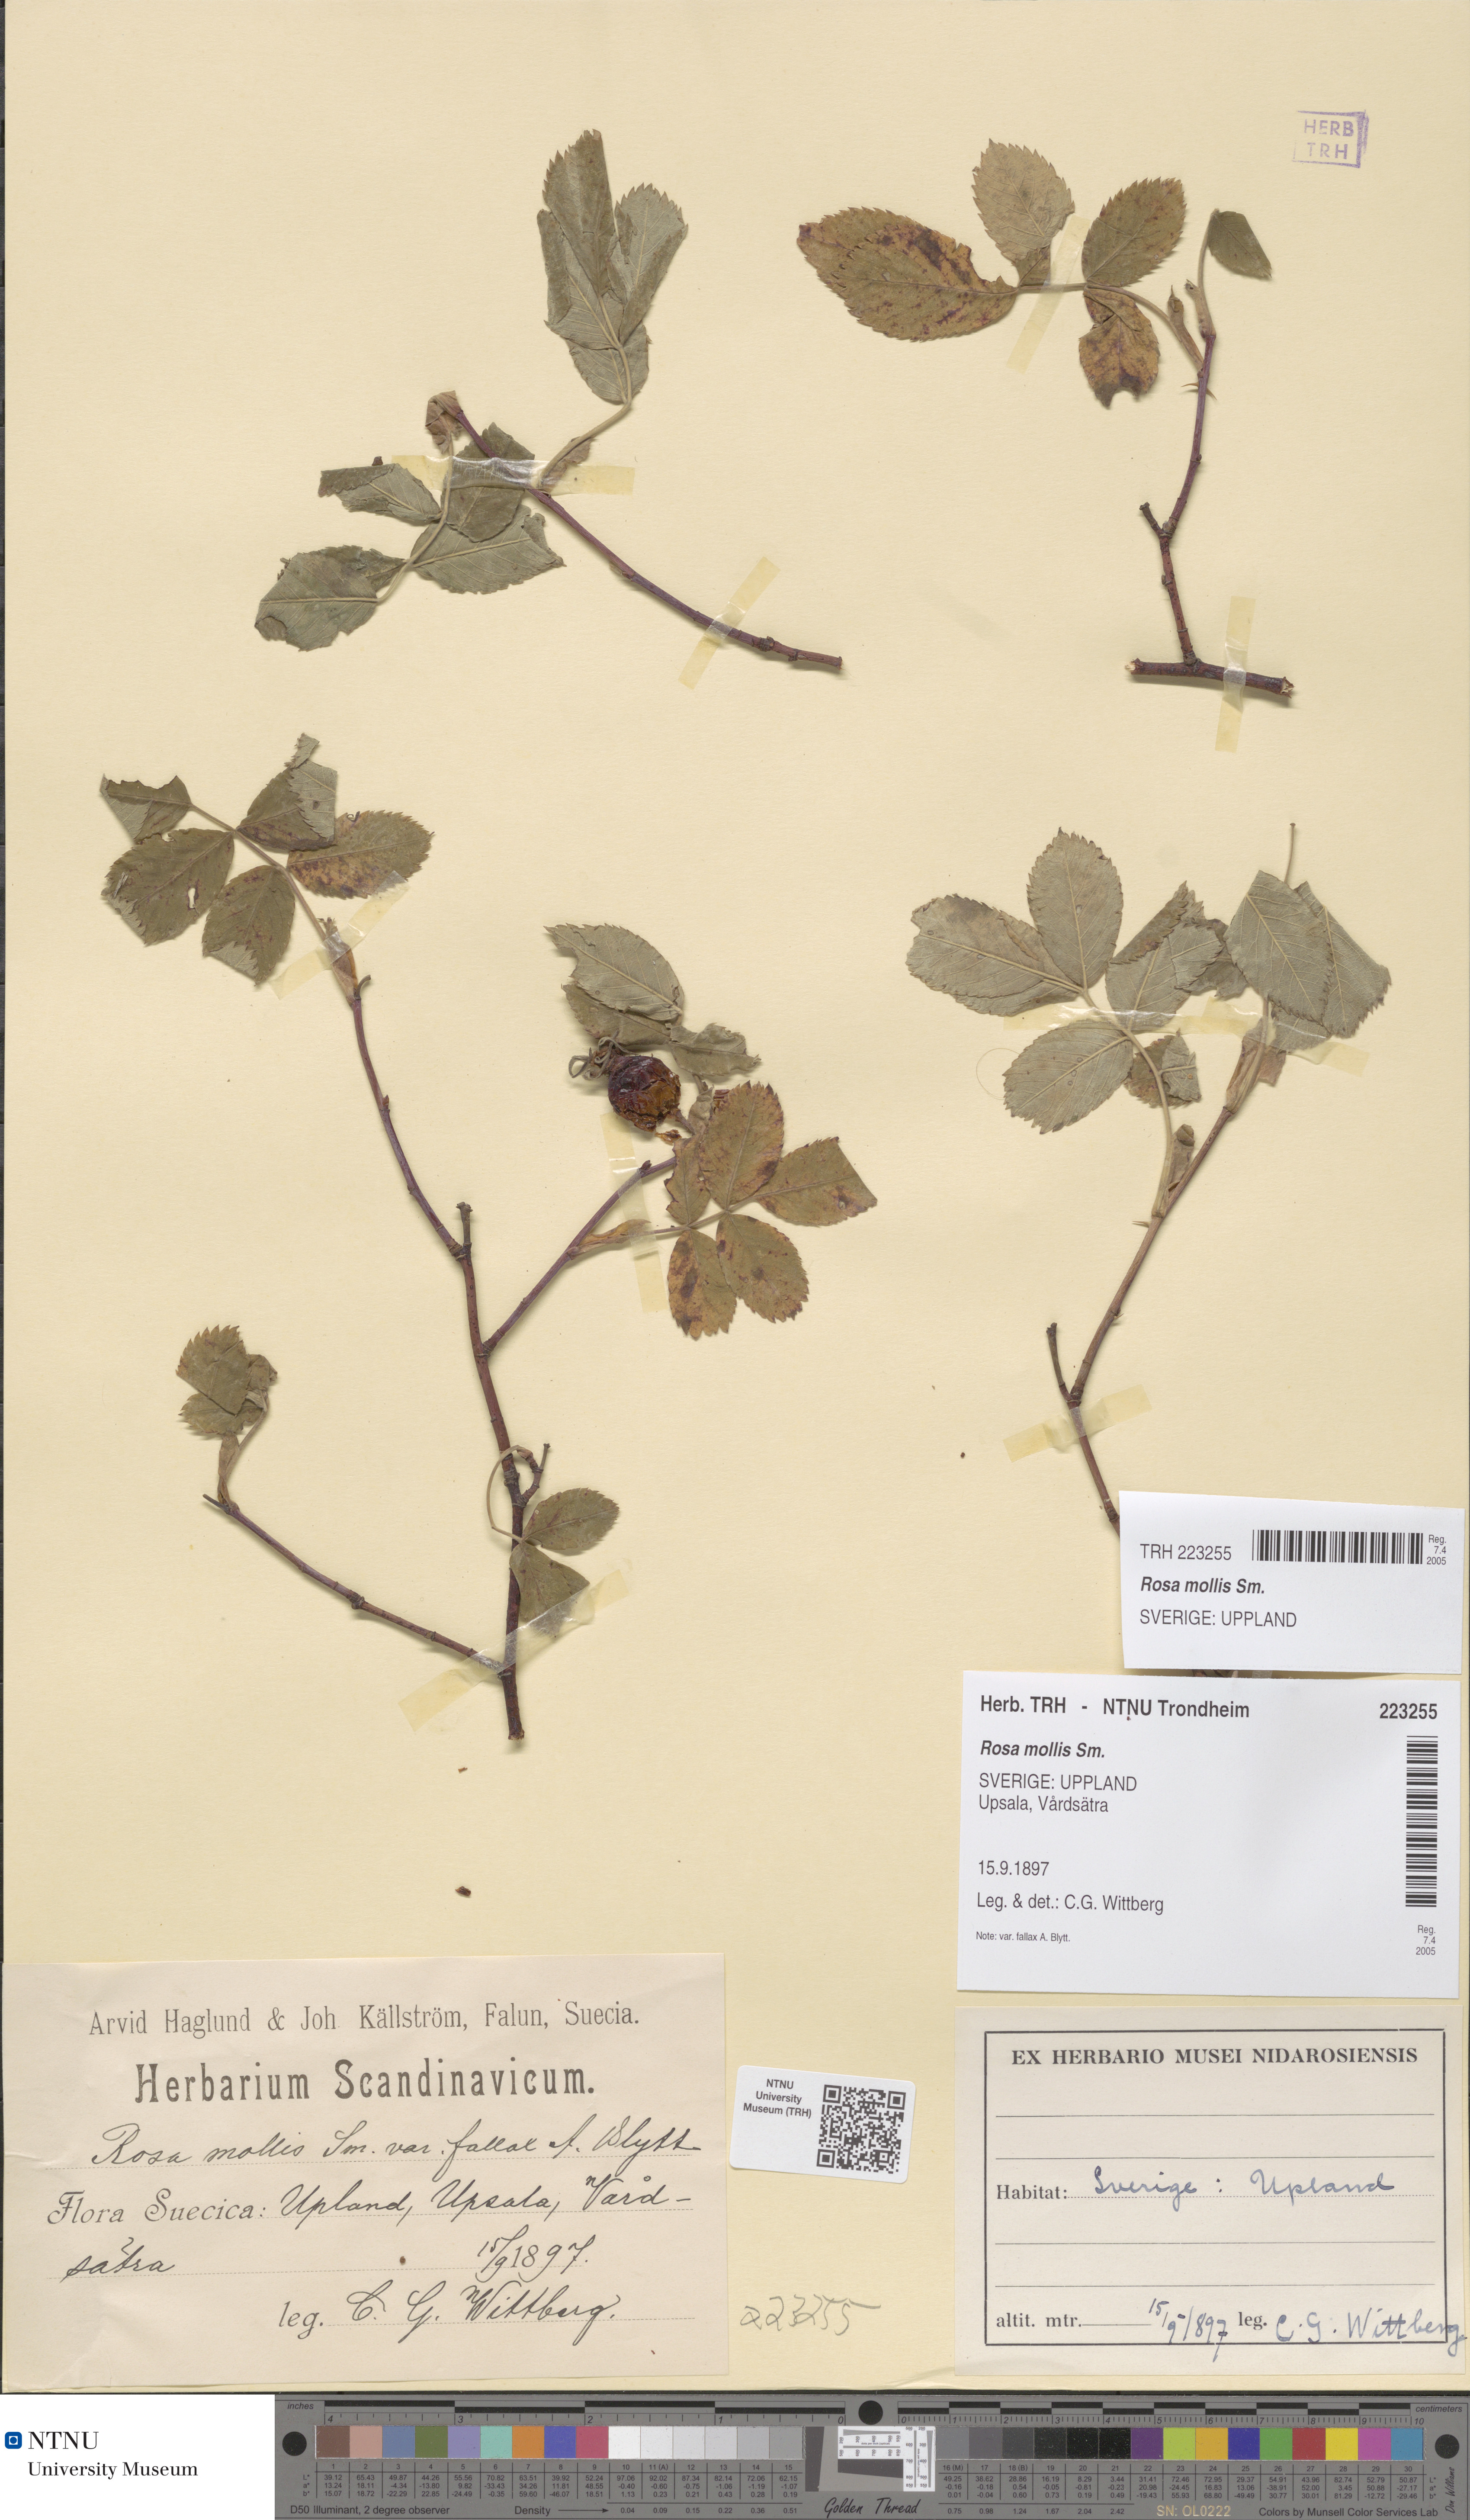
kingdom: Plantae
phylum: Tracheophyta
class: Magnoliopsida
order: Rosales
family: Rosaceae
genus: Rosa
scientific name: Rosa mollis
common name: Rose
